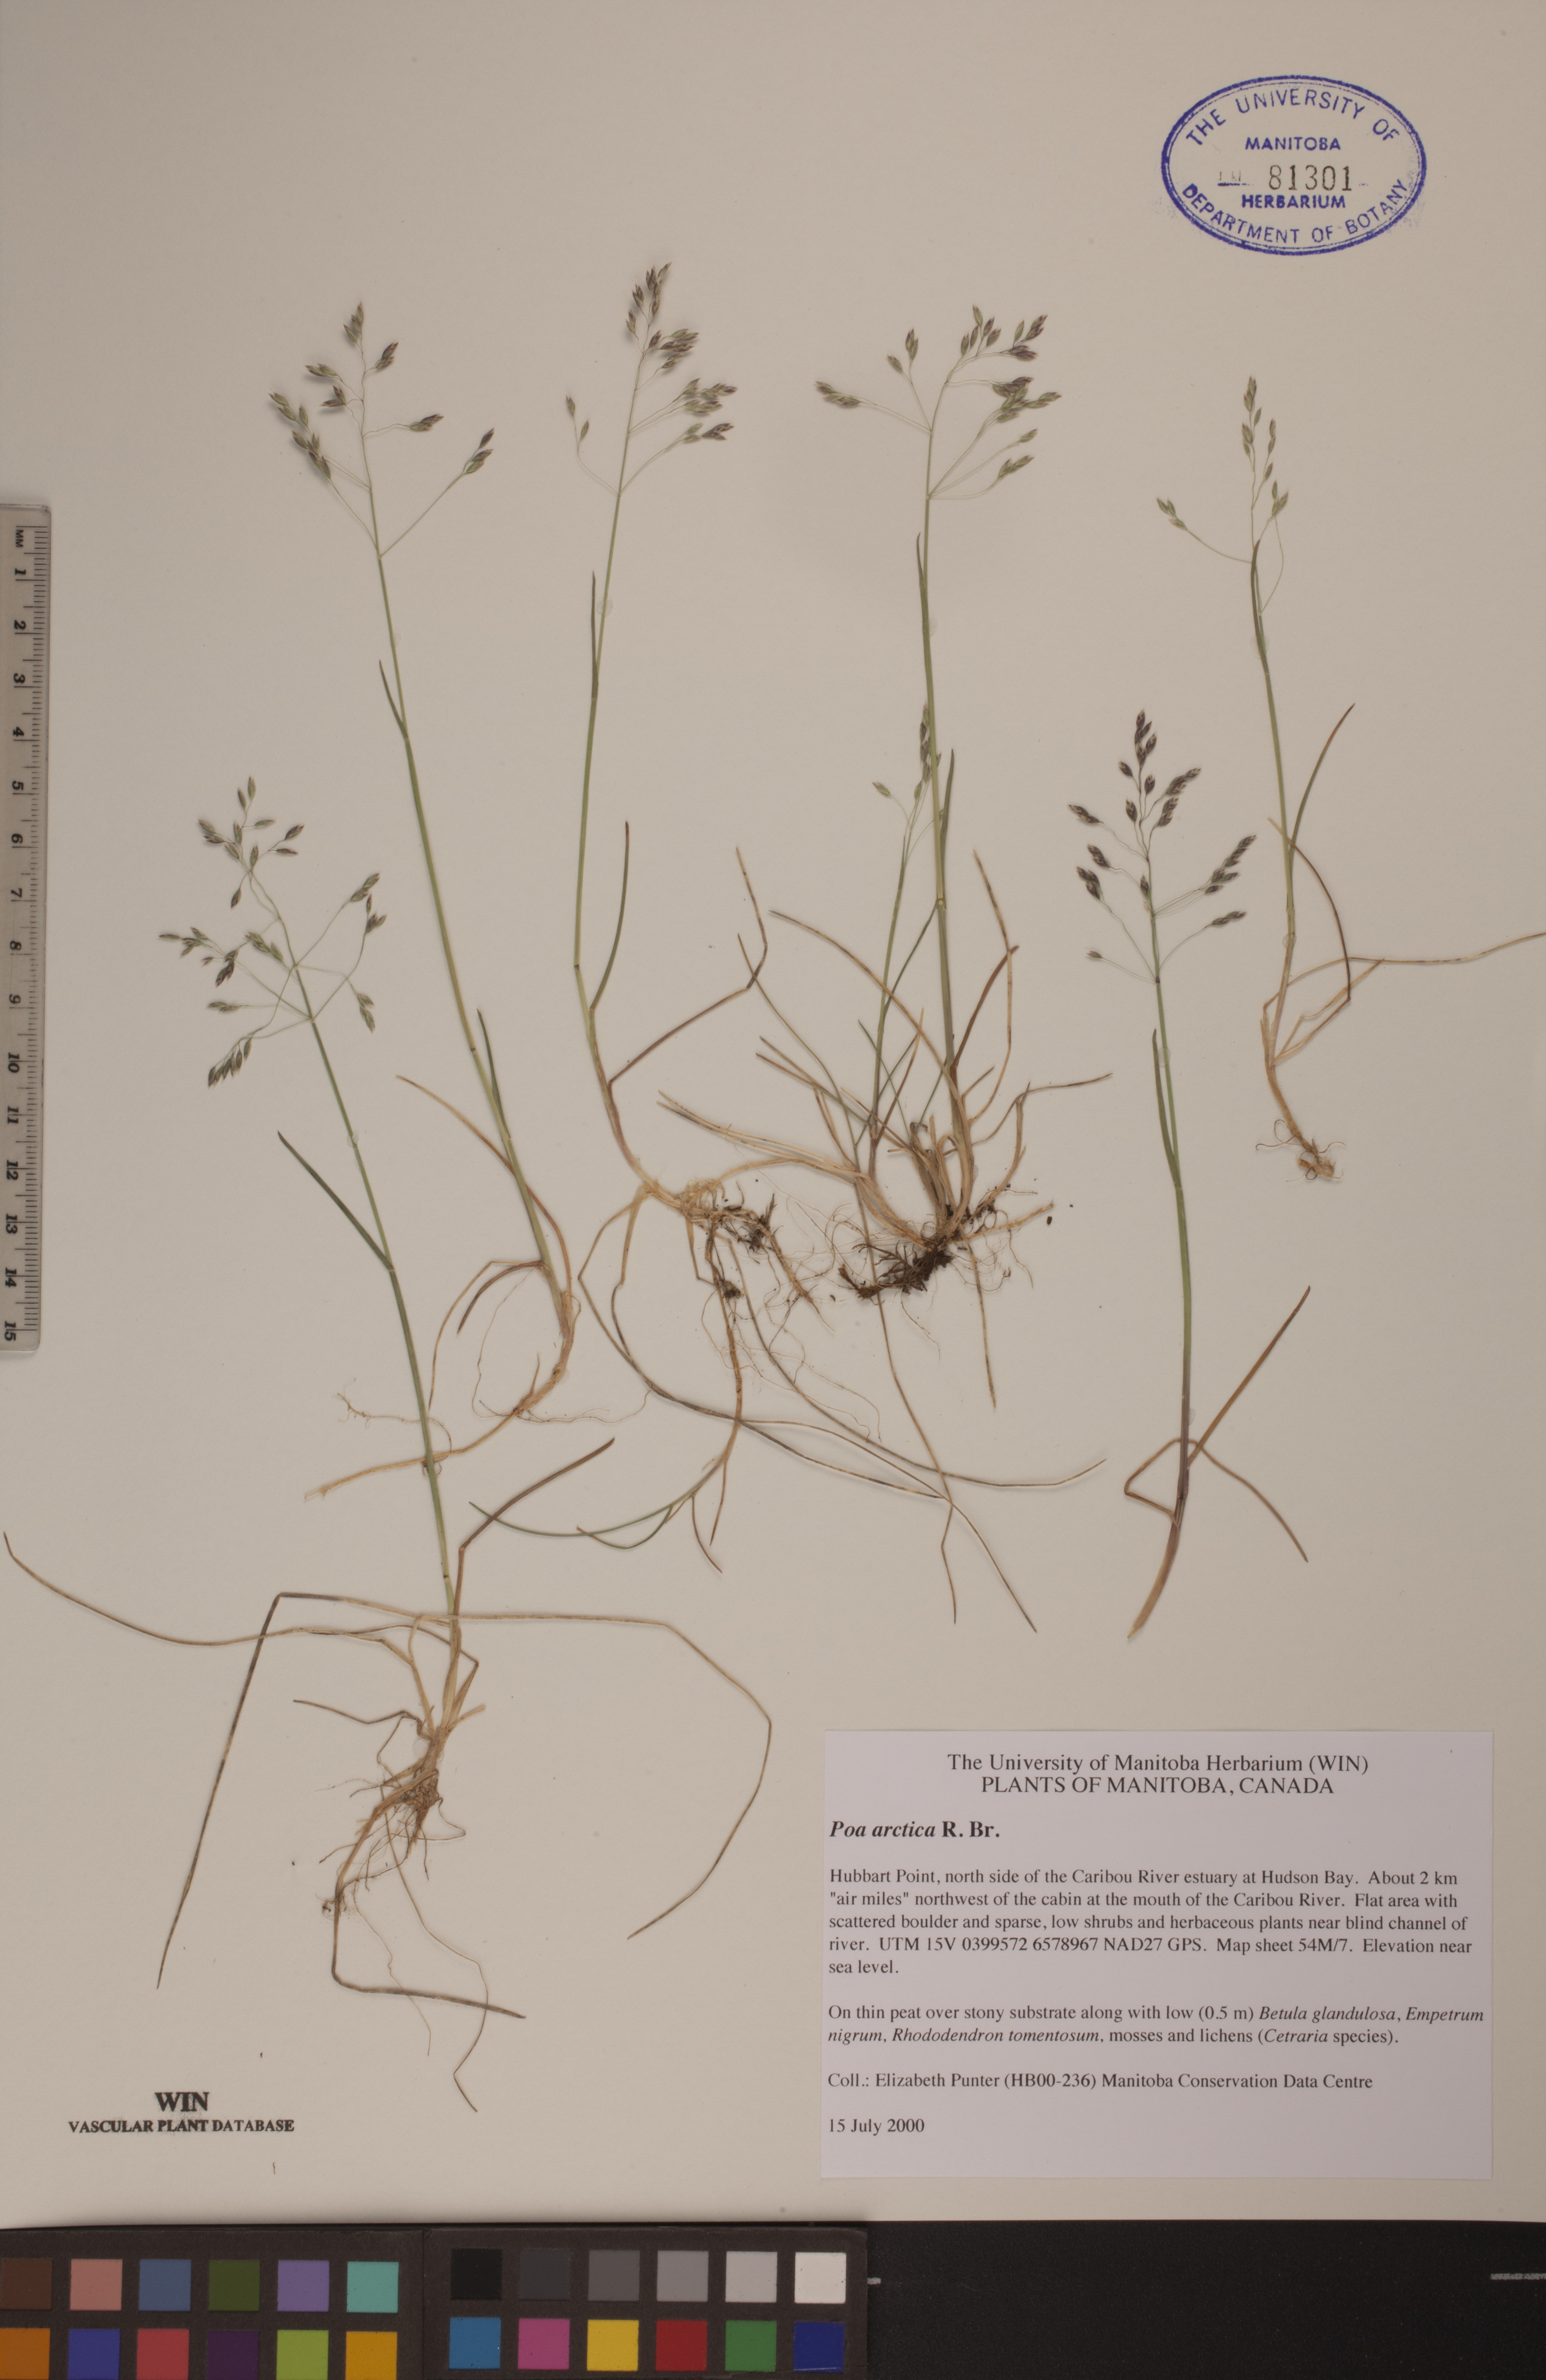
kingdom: Plantae
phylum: Tracheophyta
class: Liliopsida
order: Poales
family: Poaceae
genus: Poa
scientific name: Poa arctica
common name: Arctic bluegrass
